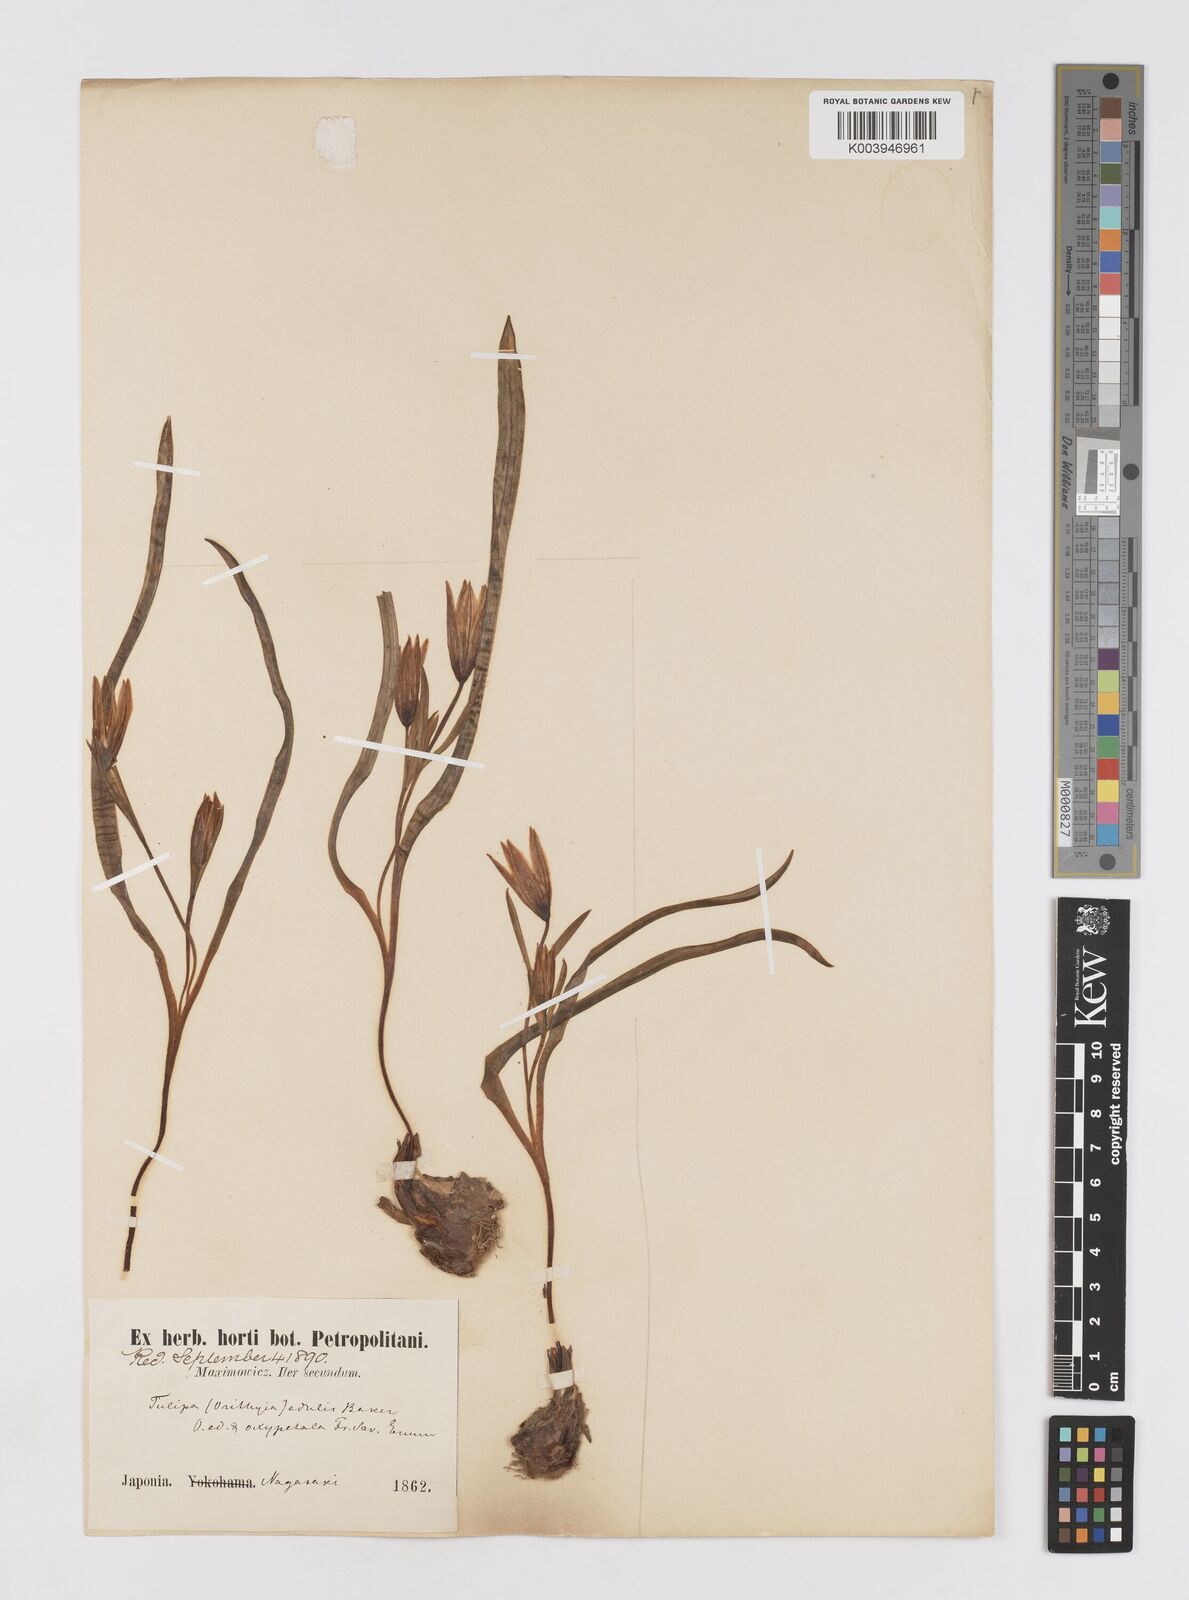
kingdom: Plantae
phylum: Tracheophyta
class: Liliopsida
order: Liliales
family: Liliaceae
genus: Amana
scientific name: Amana edulis
